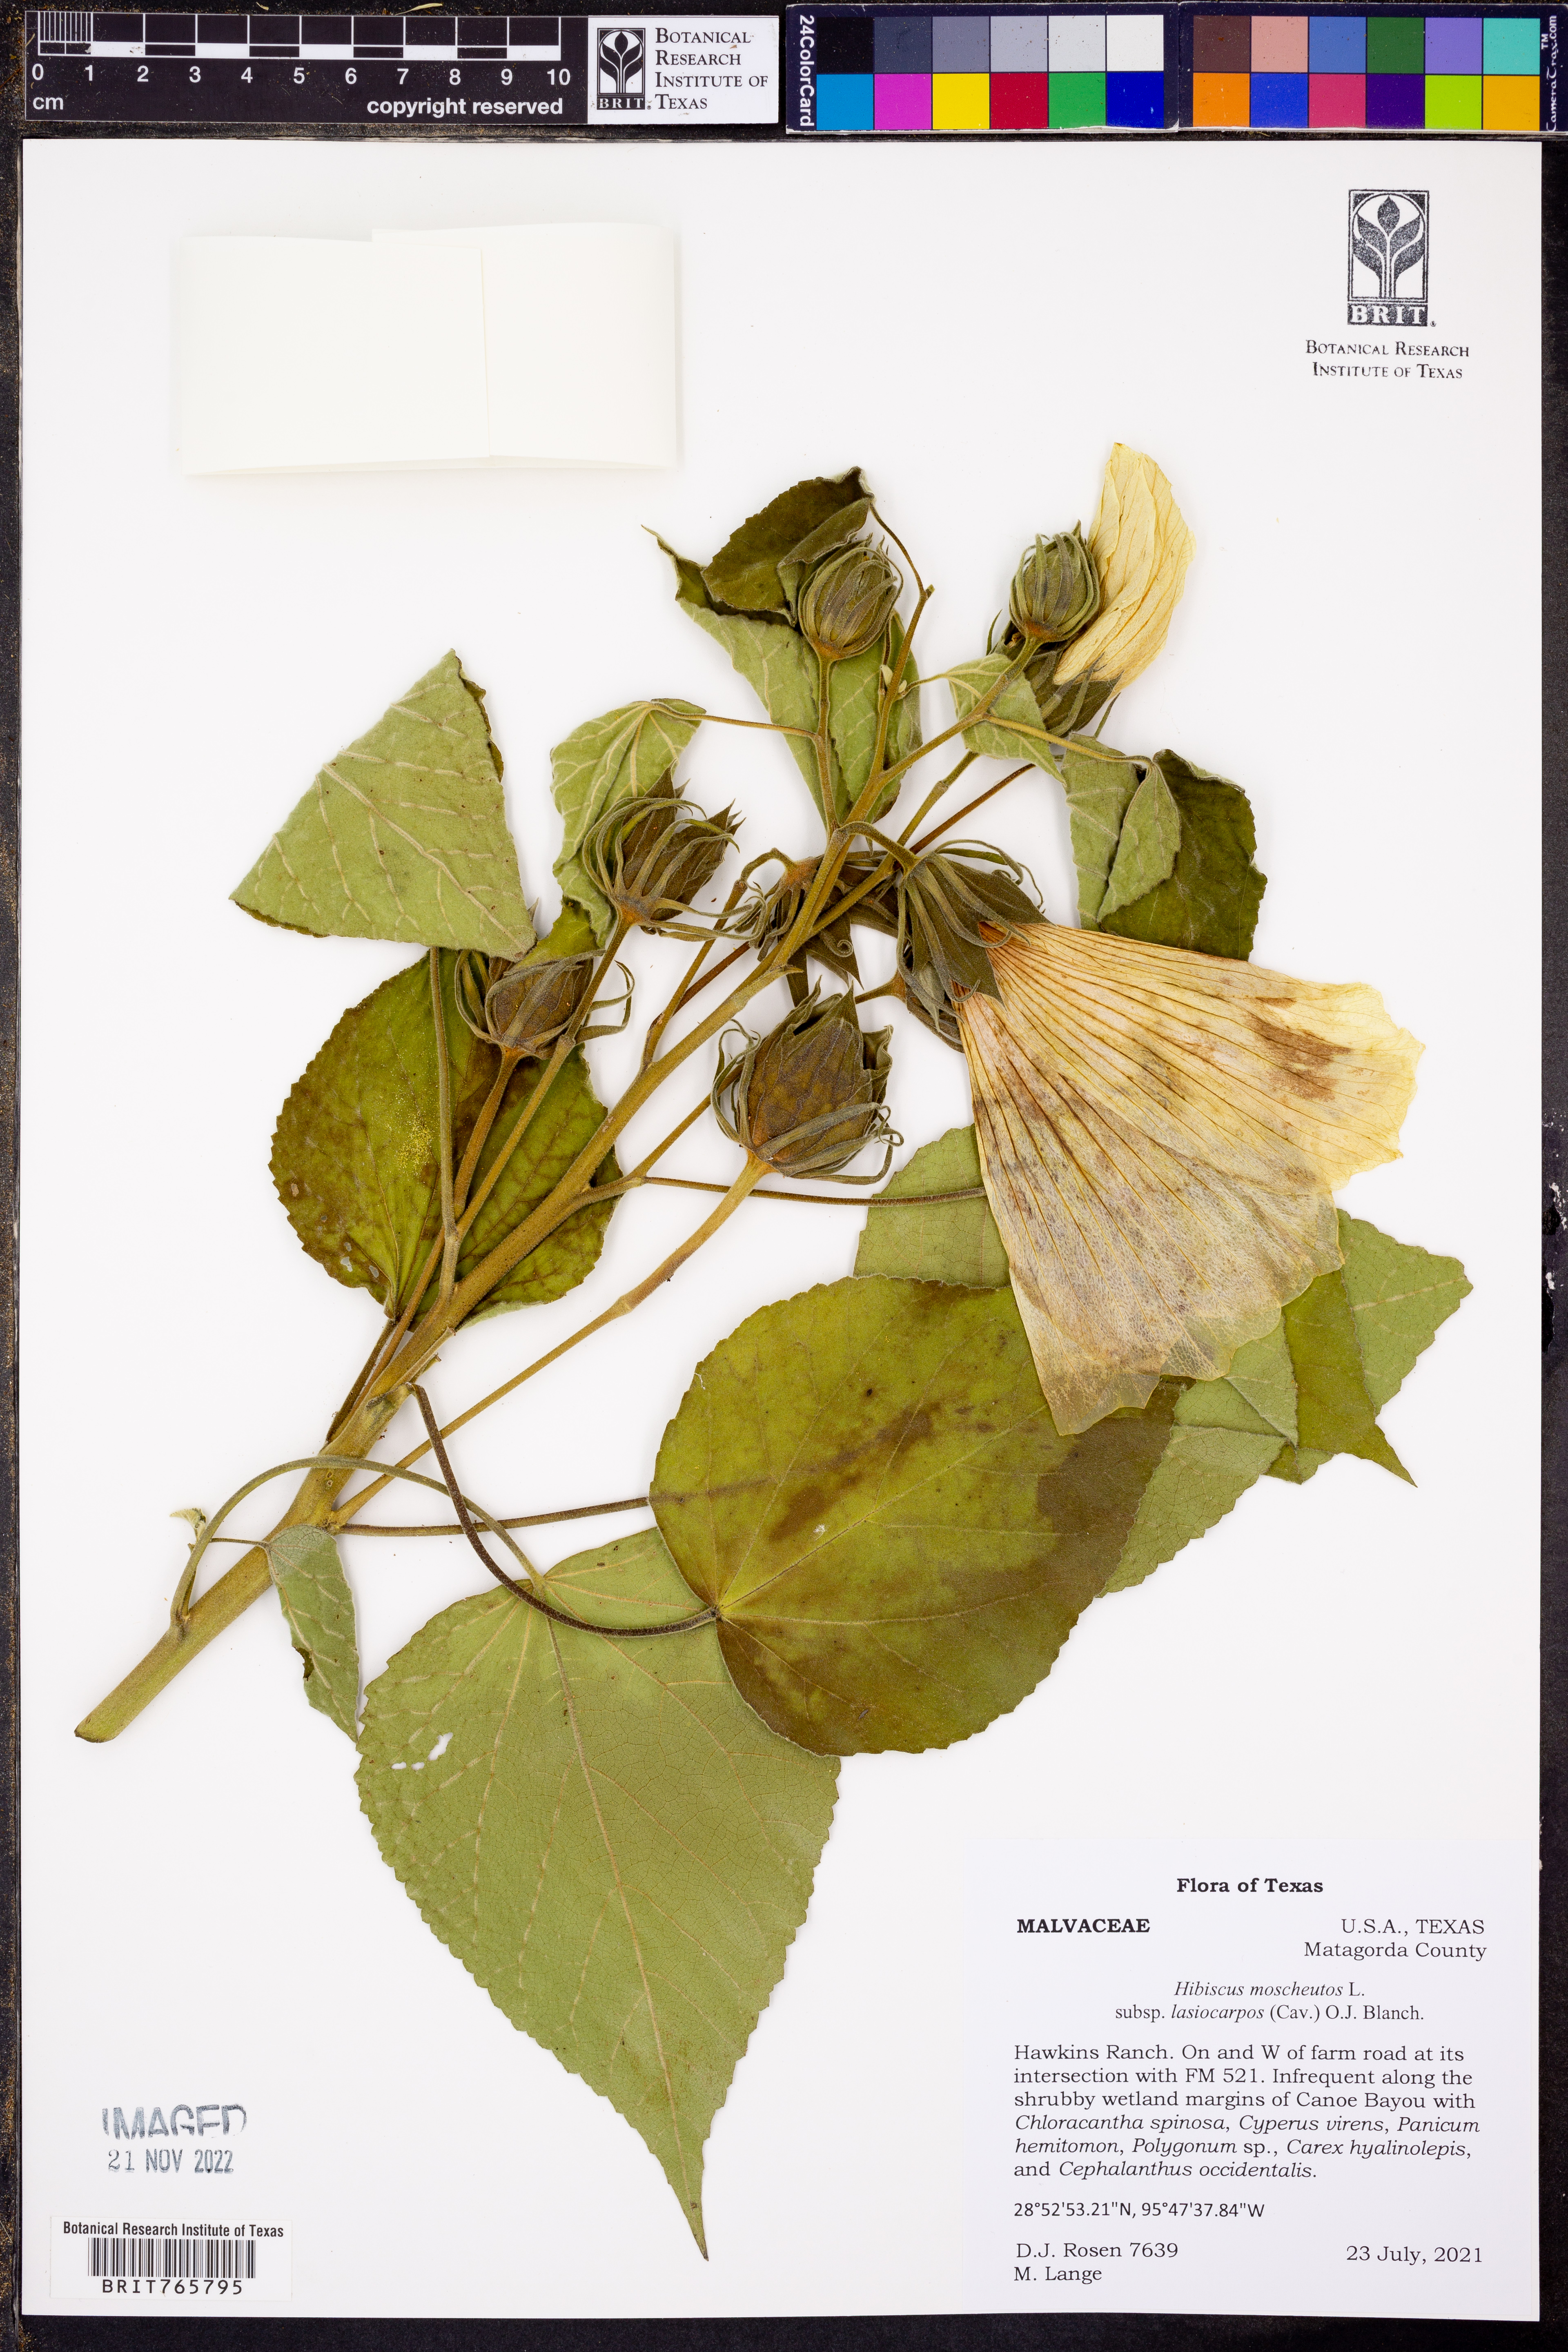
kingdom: Plantae
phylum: Tracheophyta
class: Magnoliopsida
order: Malvales
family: Malvaceae
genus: Hibiscus
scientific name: Hibiscus moscheutos
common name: Common rose-mallow
